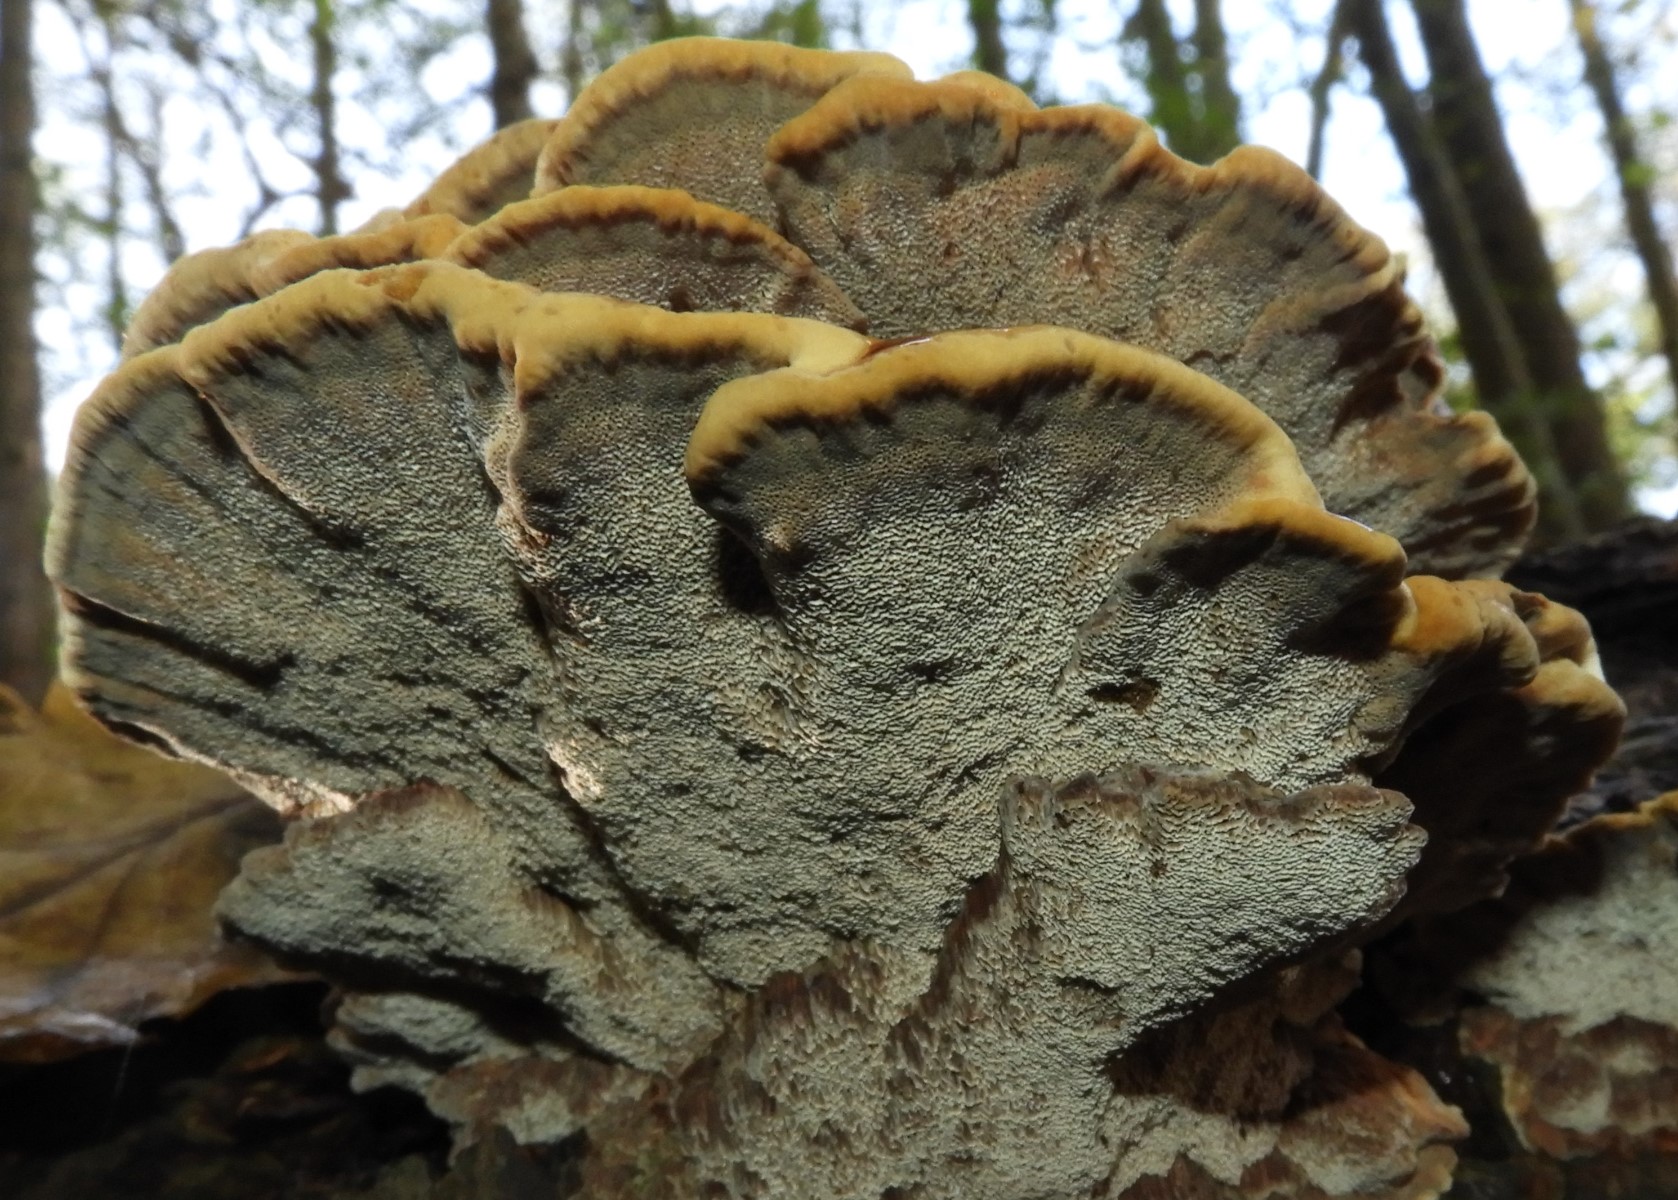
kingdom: Fungi
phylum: Basidiomycota
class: Agaricomycetes
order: Hymenochaetales
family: Hymenochaetaceae
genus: Xanthoporia
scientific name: Xanthoporia radiata
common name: elle-spejlporesvamp
